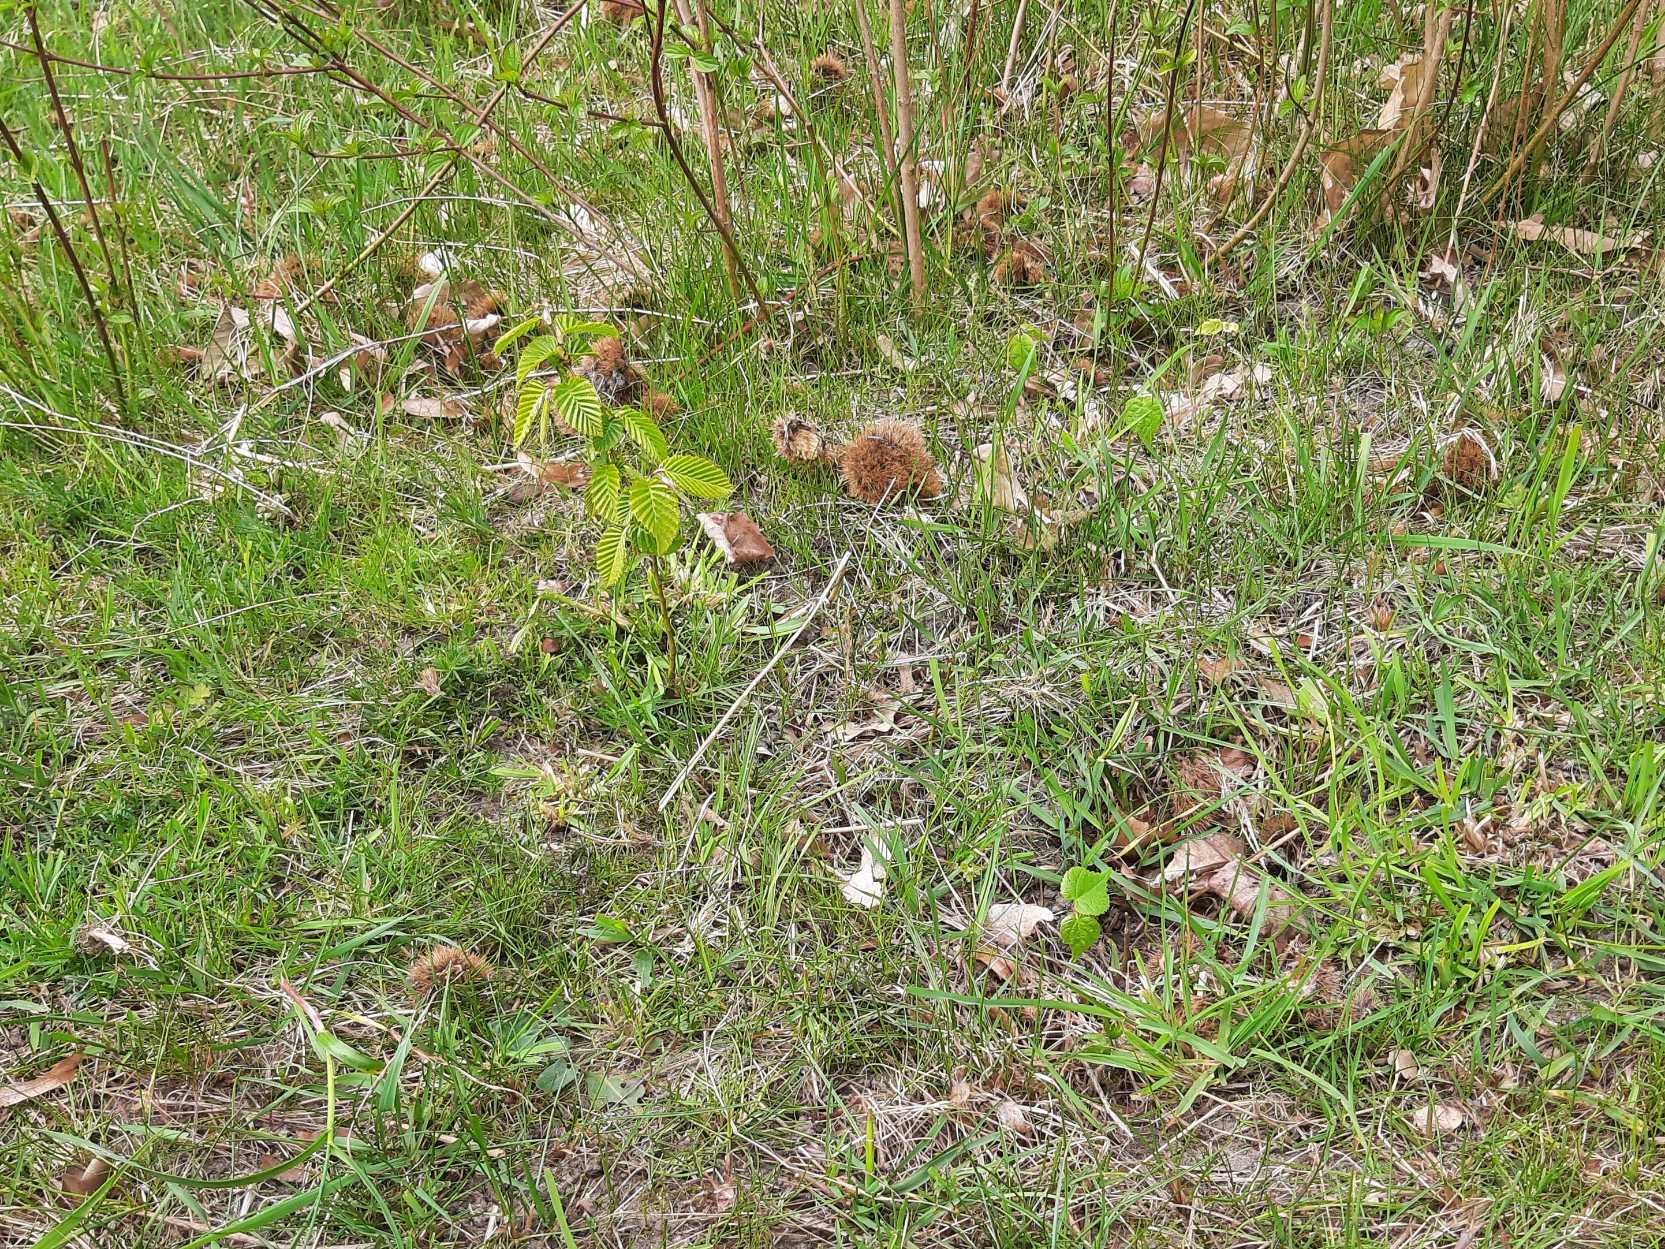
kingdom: Plantae
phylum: Tracheophyta
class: Magnoliopsida
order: Fagales
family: Betulaceae
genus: Carpinus
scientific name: Carpinus betulus
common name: Avnbøg
